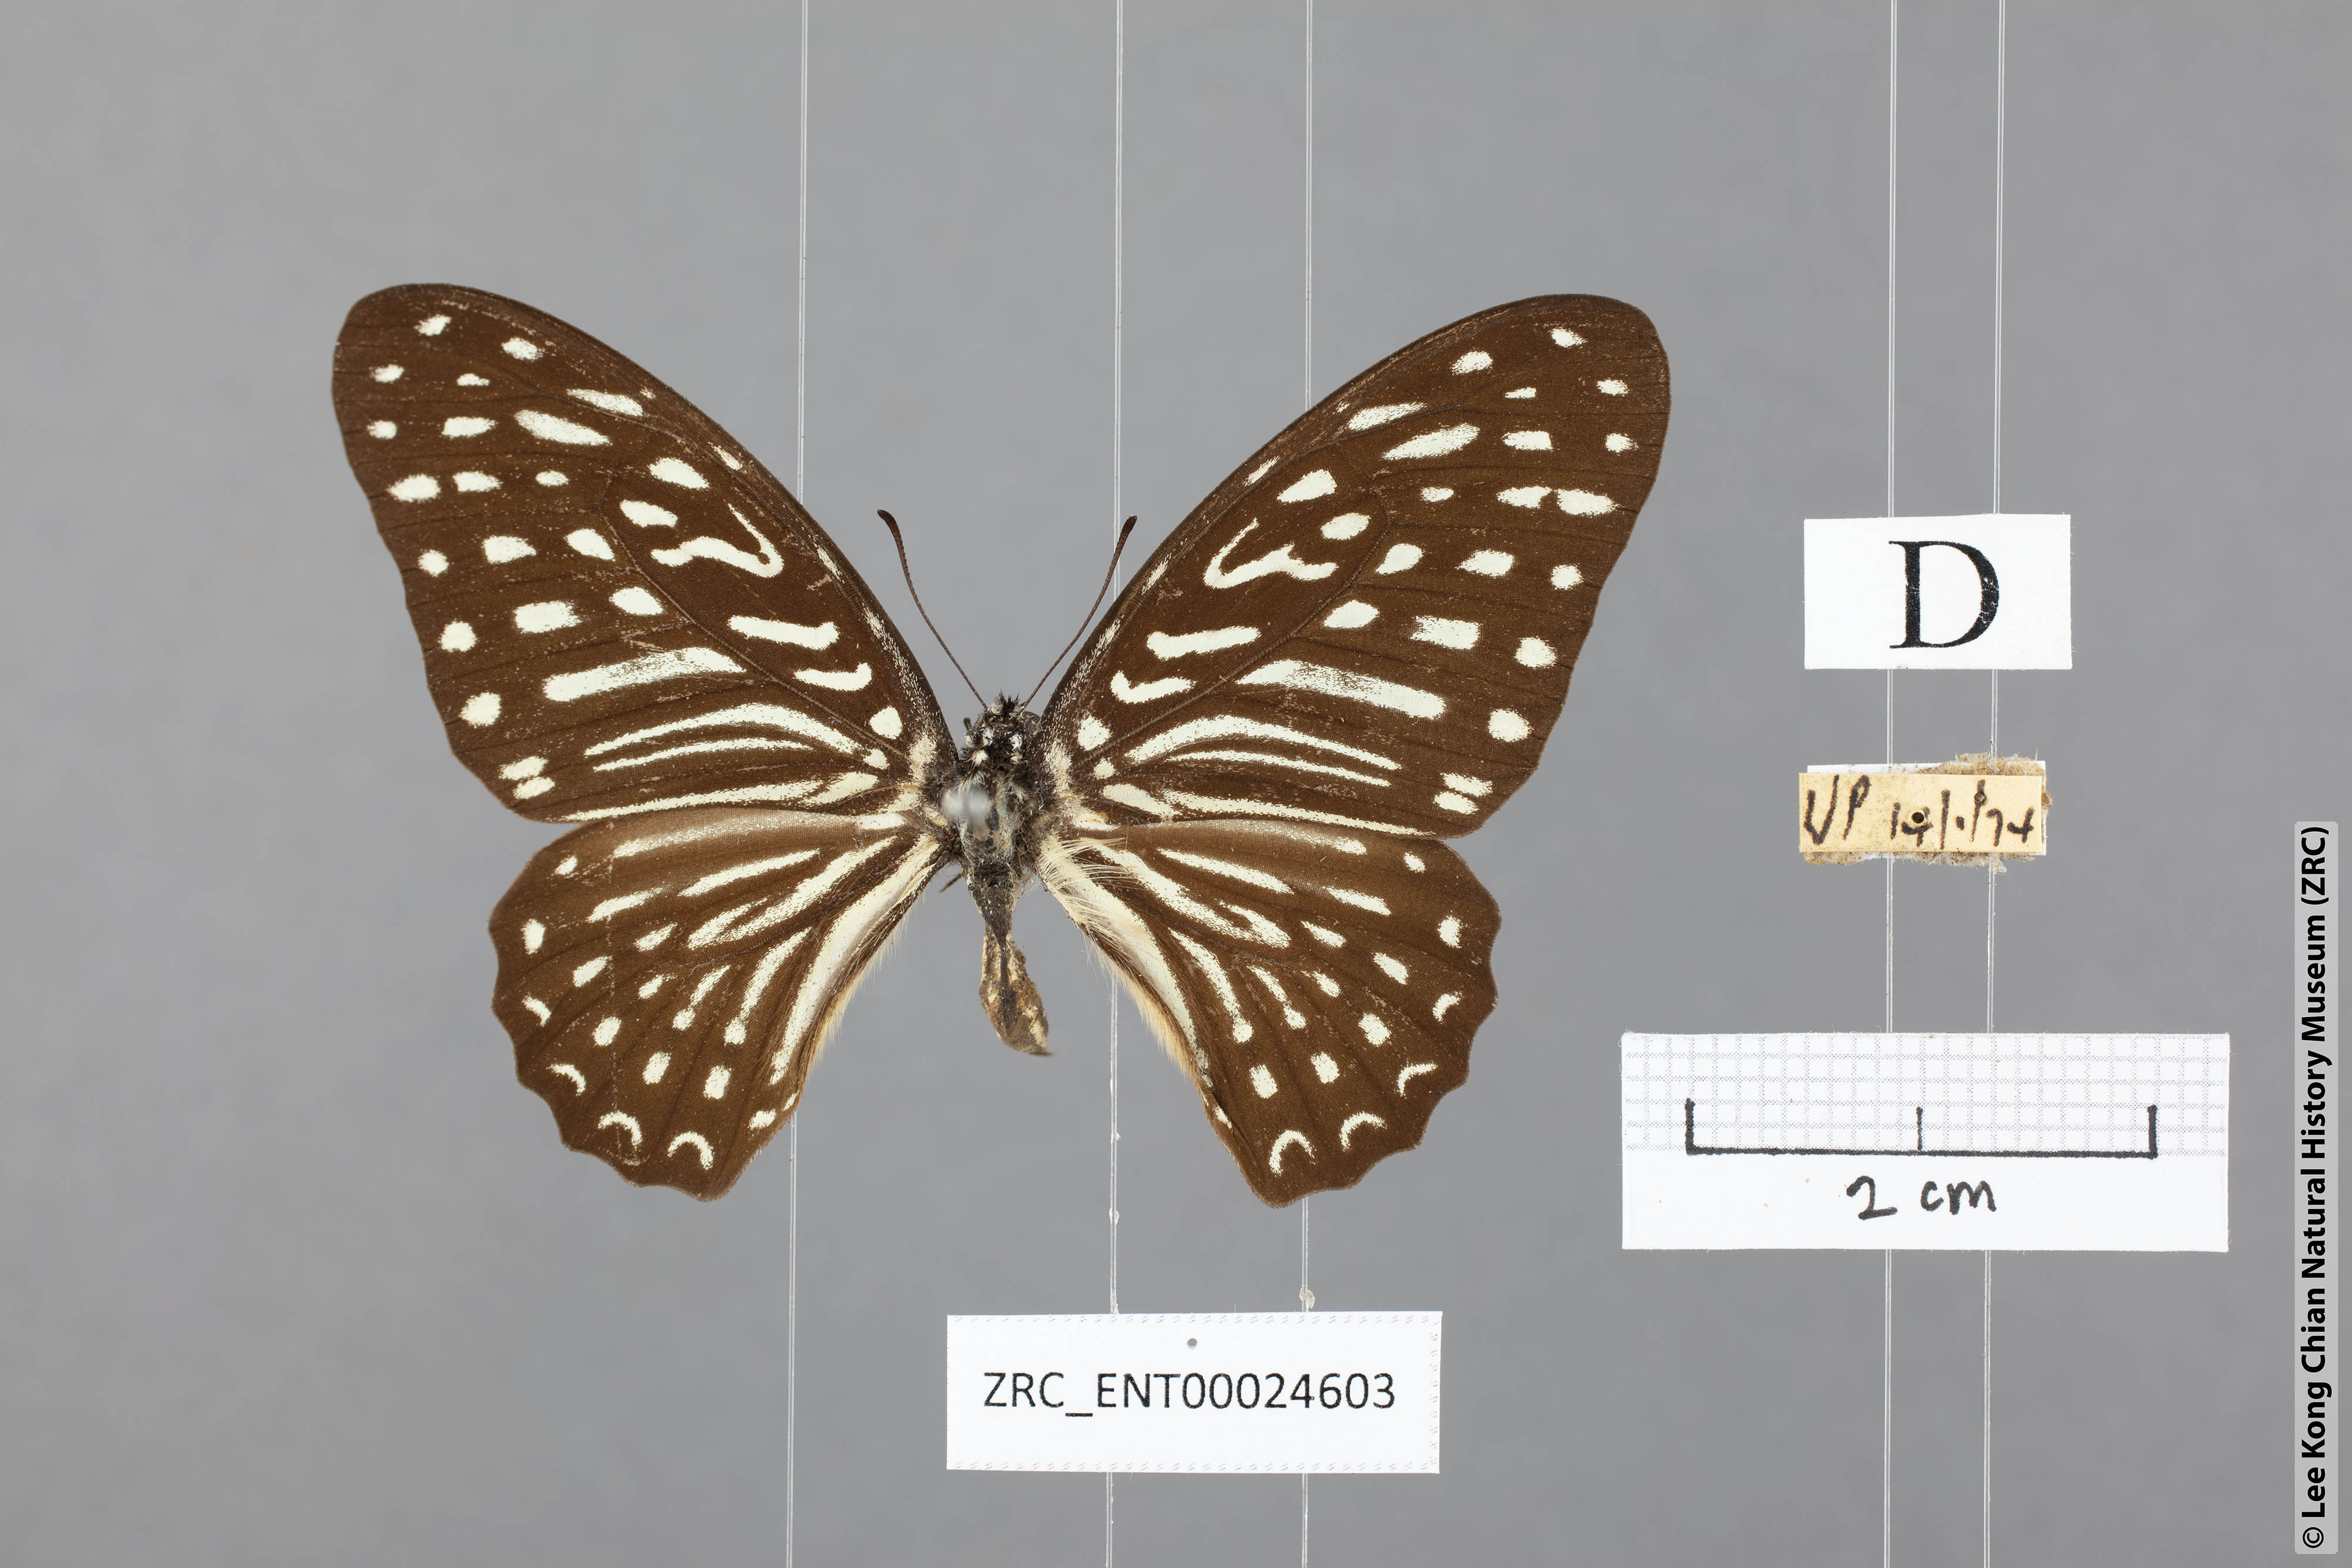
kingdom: Animalia
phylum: Arthropoda
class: Insecta
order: Lepidoptera
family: Papilionidae
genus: Graphium
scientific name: Graphium megarus
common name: Spotted zebra
